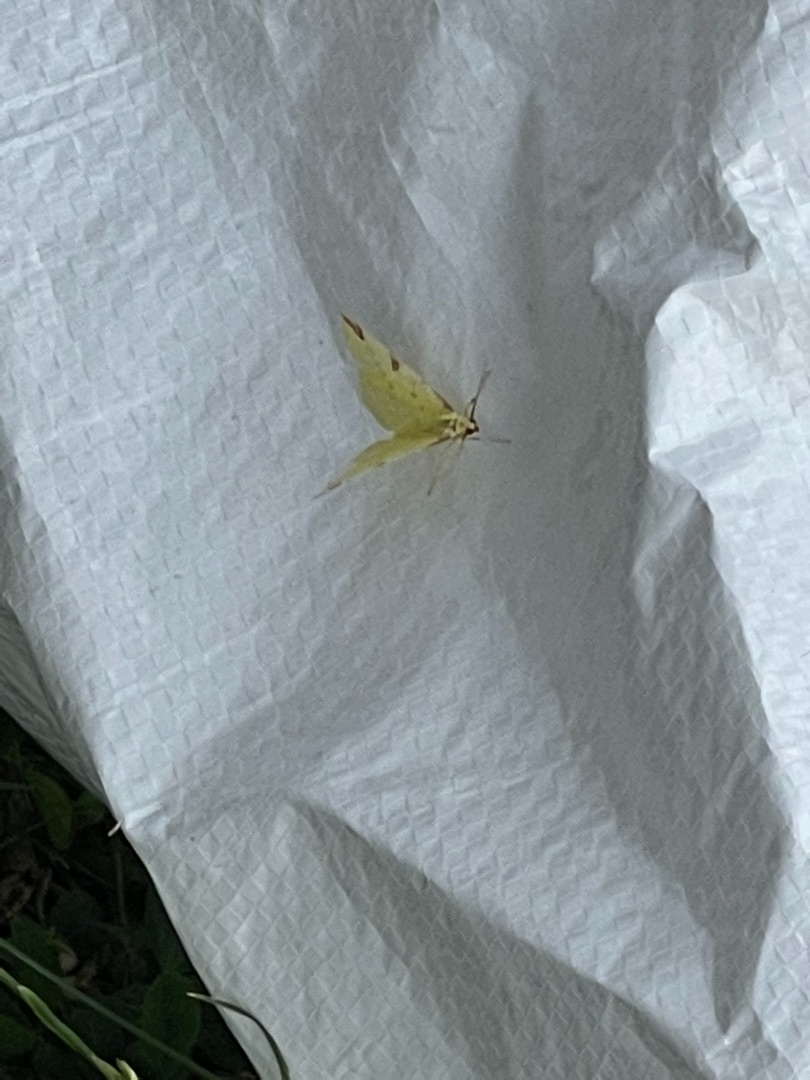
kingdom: Animalia
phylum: Arthropoda
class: Insecta
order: Lepidoptera
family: Geometridae
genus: Opisthograptis
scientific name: Opisthograptis luteolata
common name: Citronmåler
